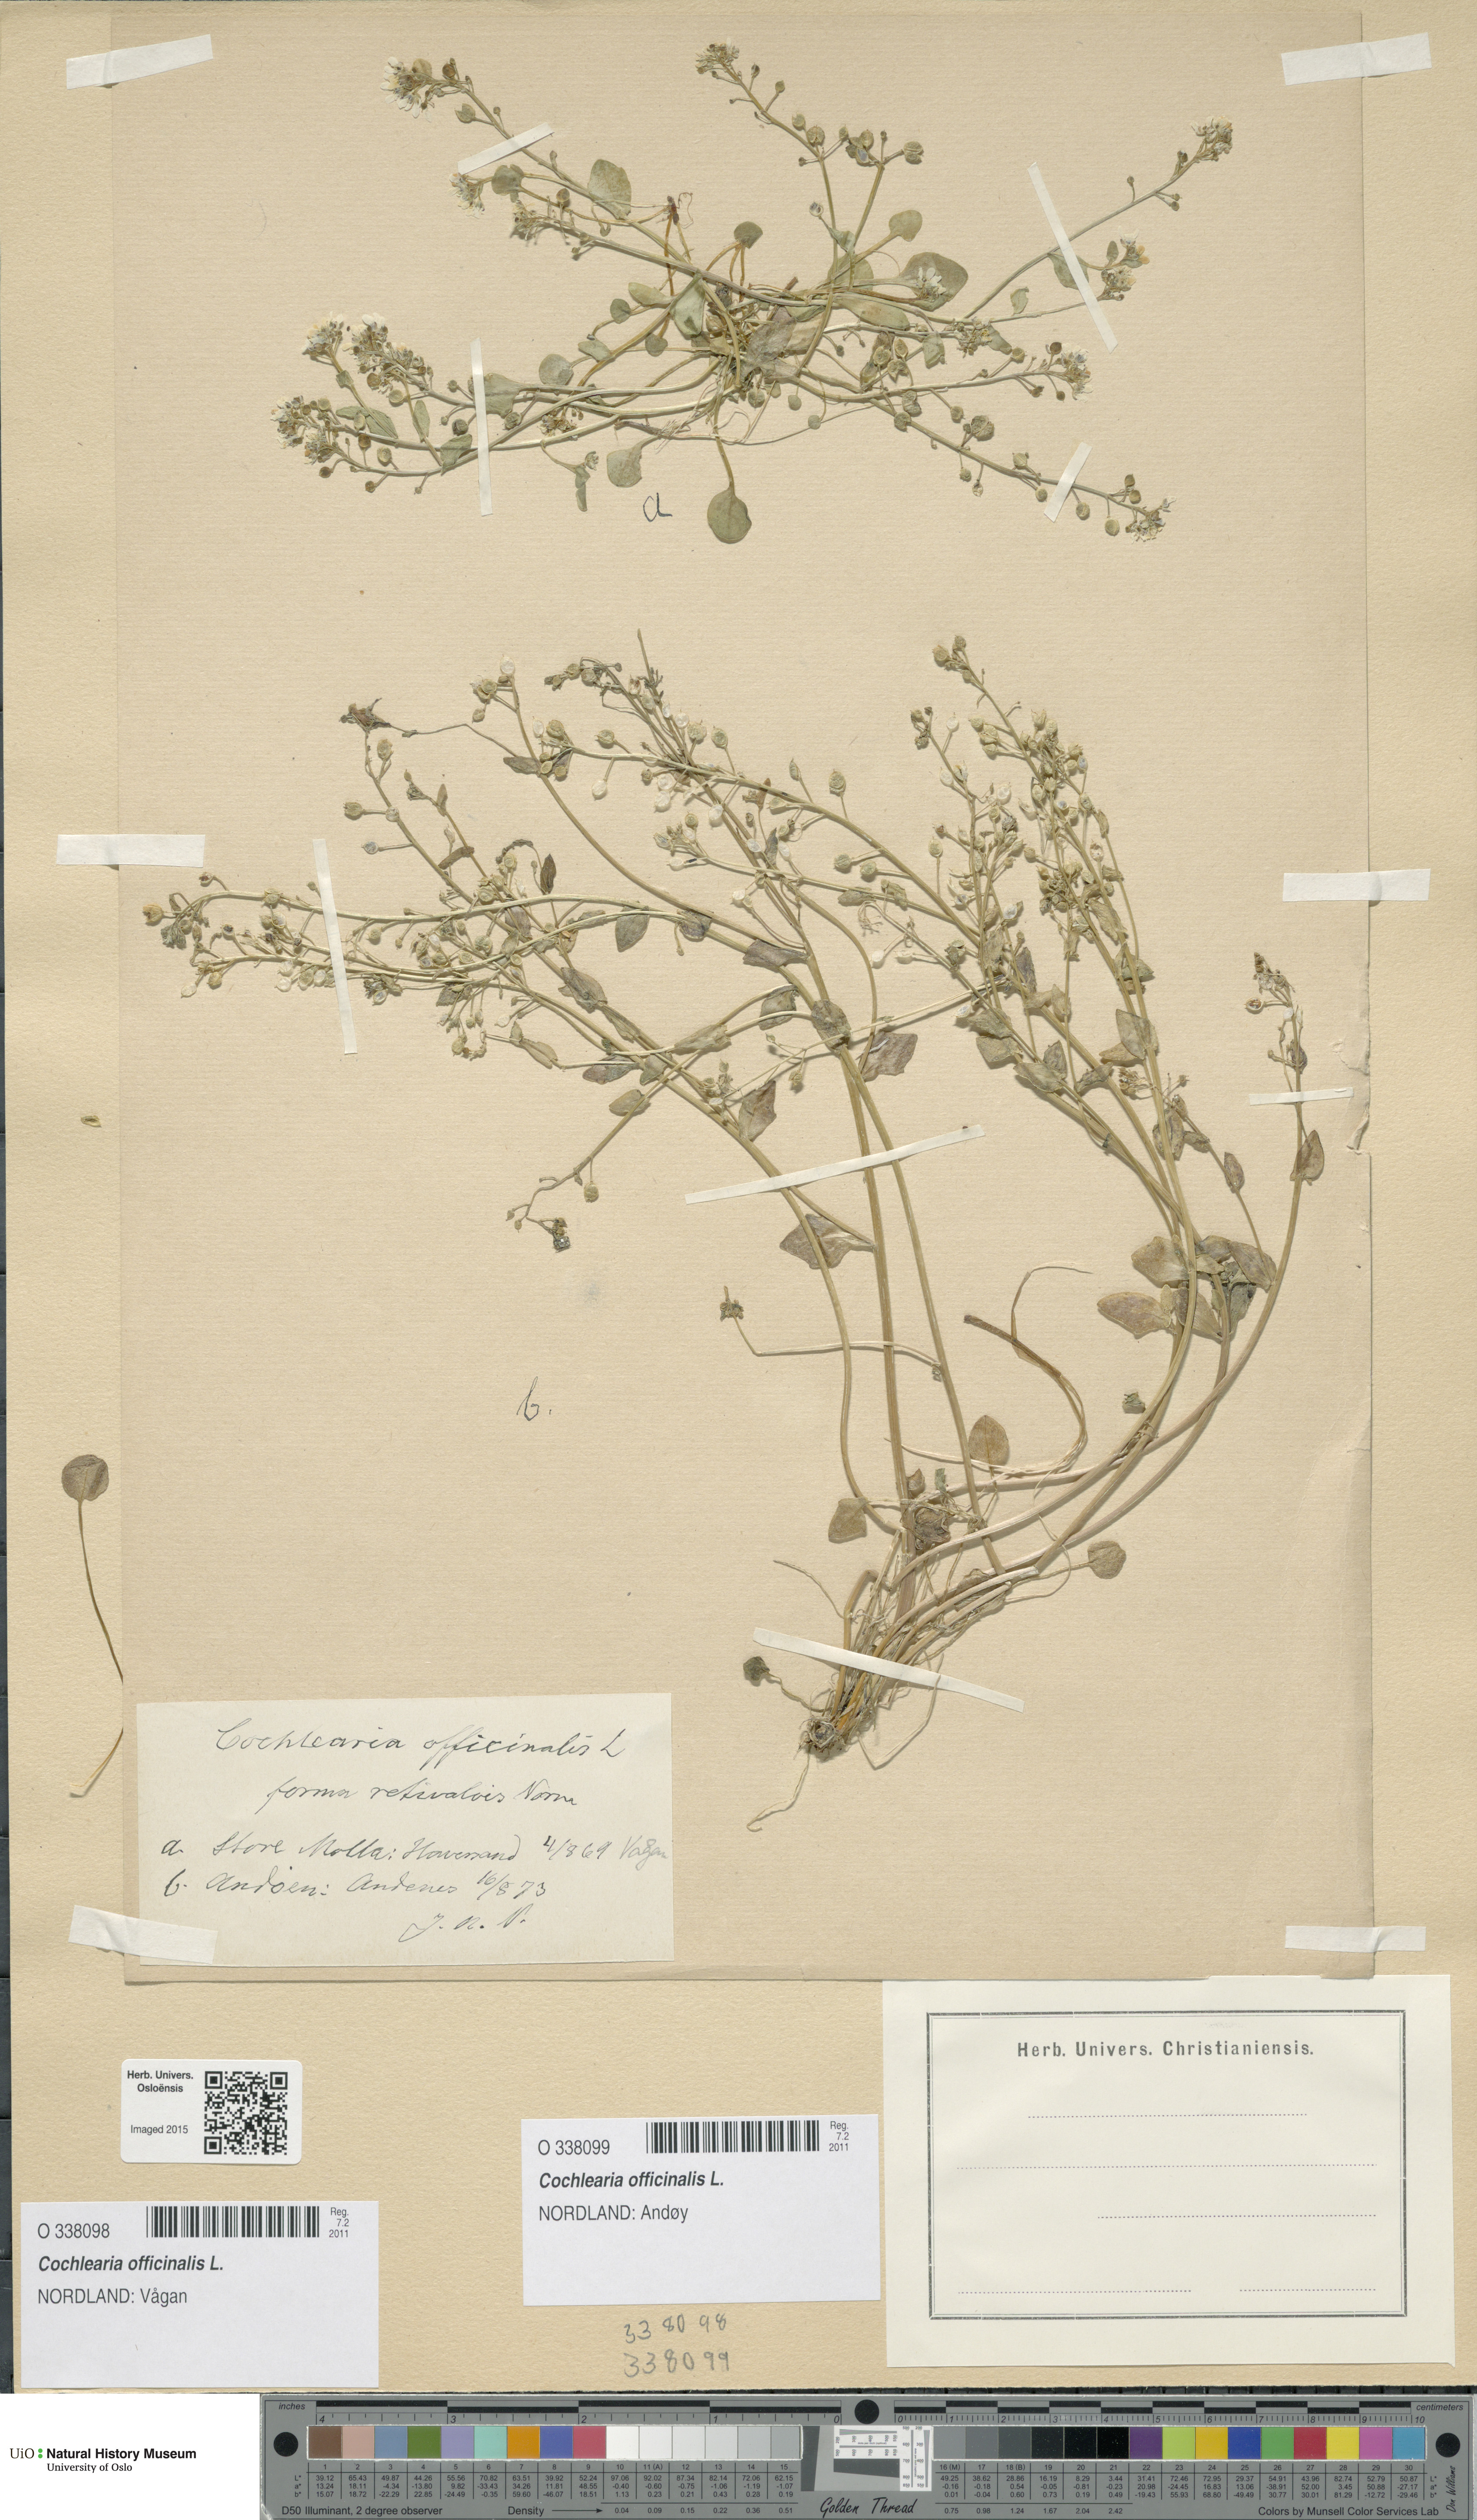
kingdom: Plantae
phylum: Tracheophyta
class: Magnoliopsida
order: Brassicales
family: Brassicaceae
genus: Cochlearia
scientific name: Cochlearia officinalis
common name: Scurvy-grass
